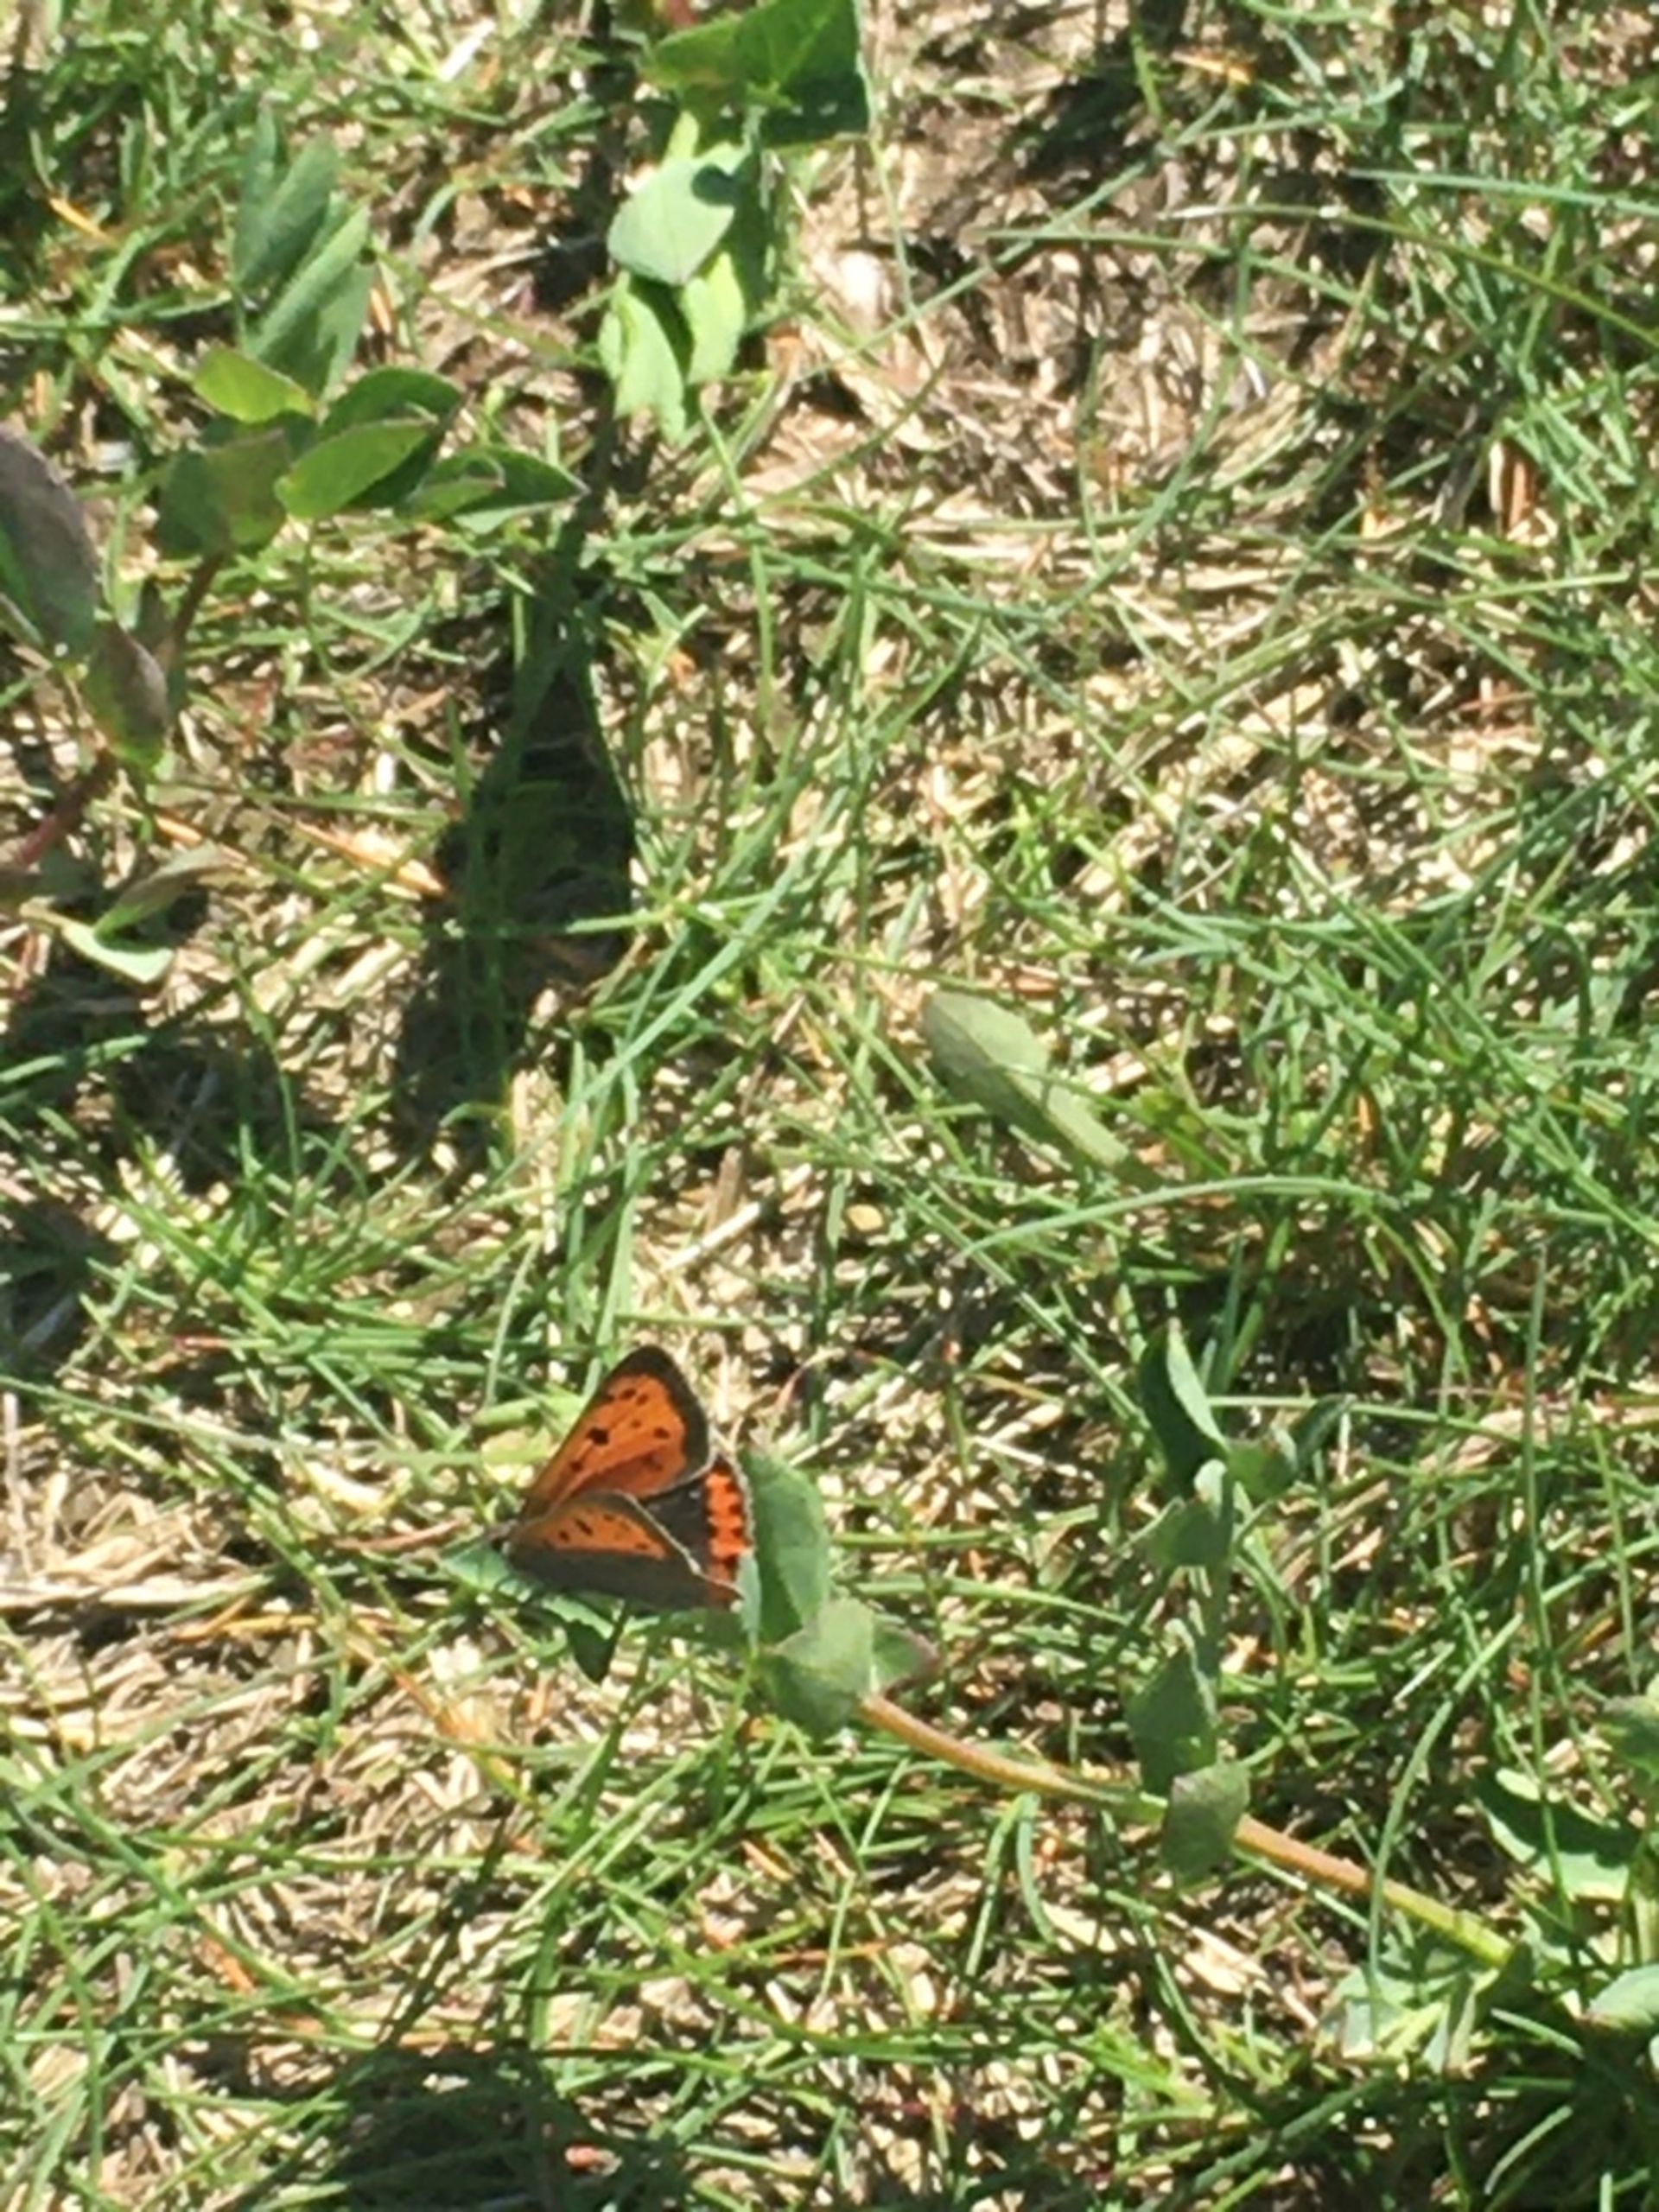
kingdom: Animalia
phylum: Arthropoda
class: Insecta
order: Lepidoptera
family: Lycaenidae
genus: Lycaena
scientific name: Lycaena phlaeas
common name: Lille ildfugl
